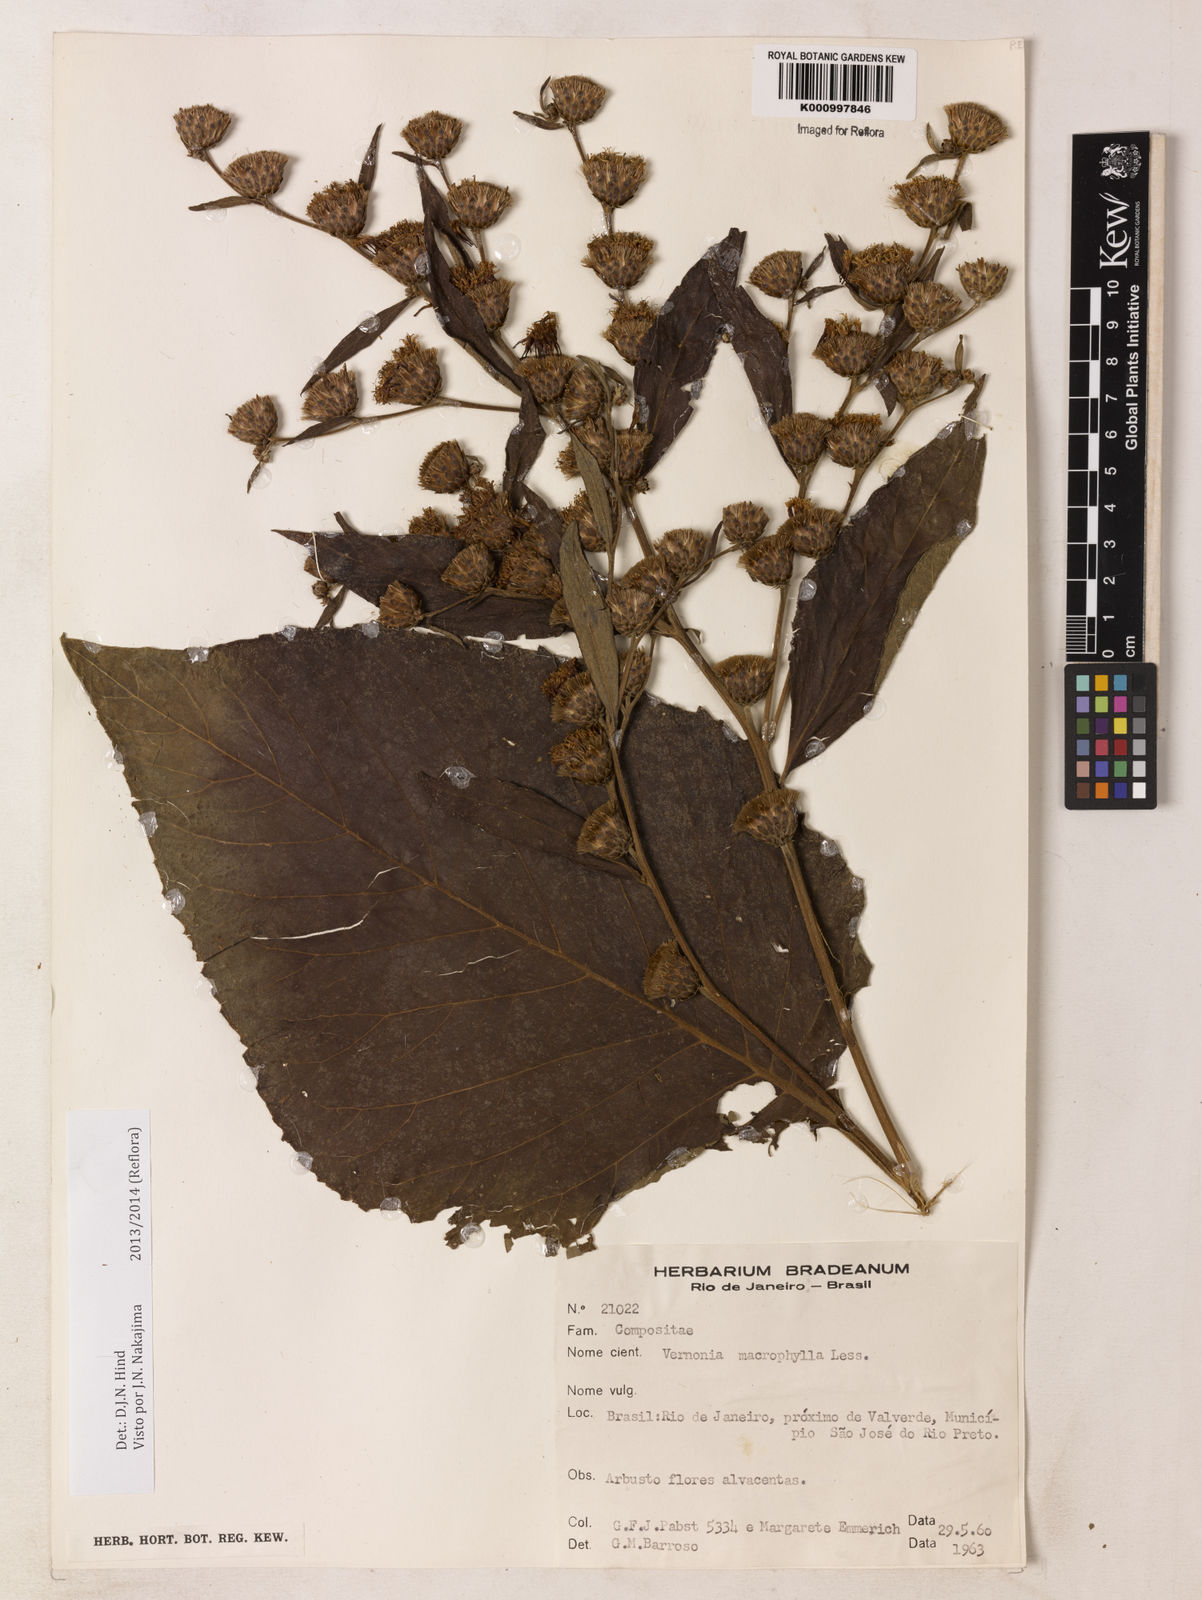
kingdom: Plantae
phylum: Tracheophyta
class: Magnoliopsida
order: Asterales
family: Asteraceae
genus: Lessingianthus
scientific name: Lessingianthus macrophyllus
